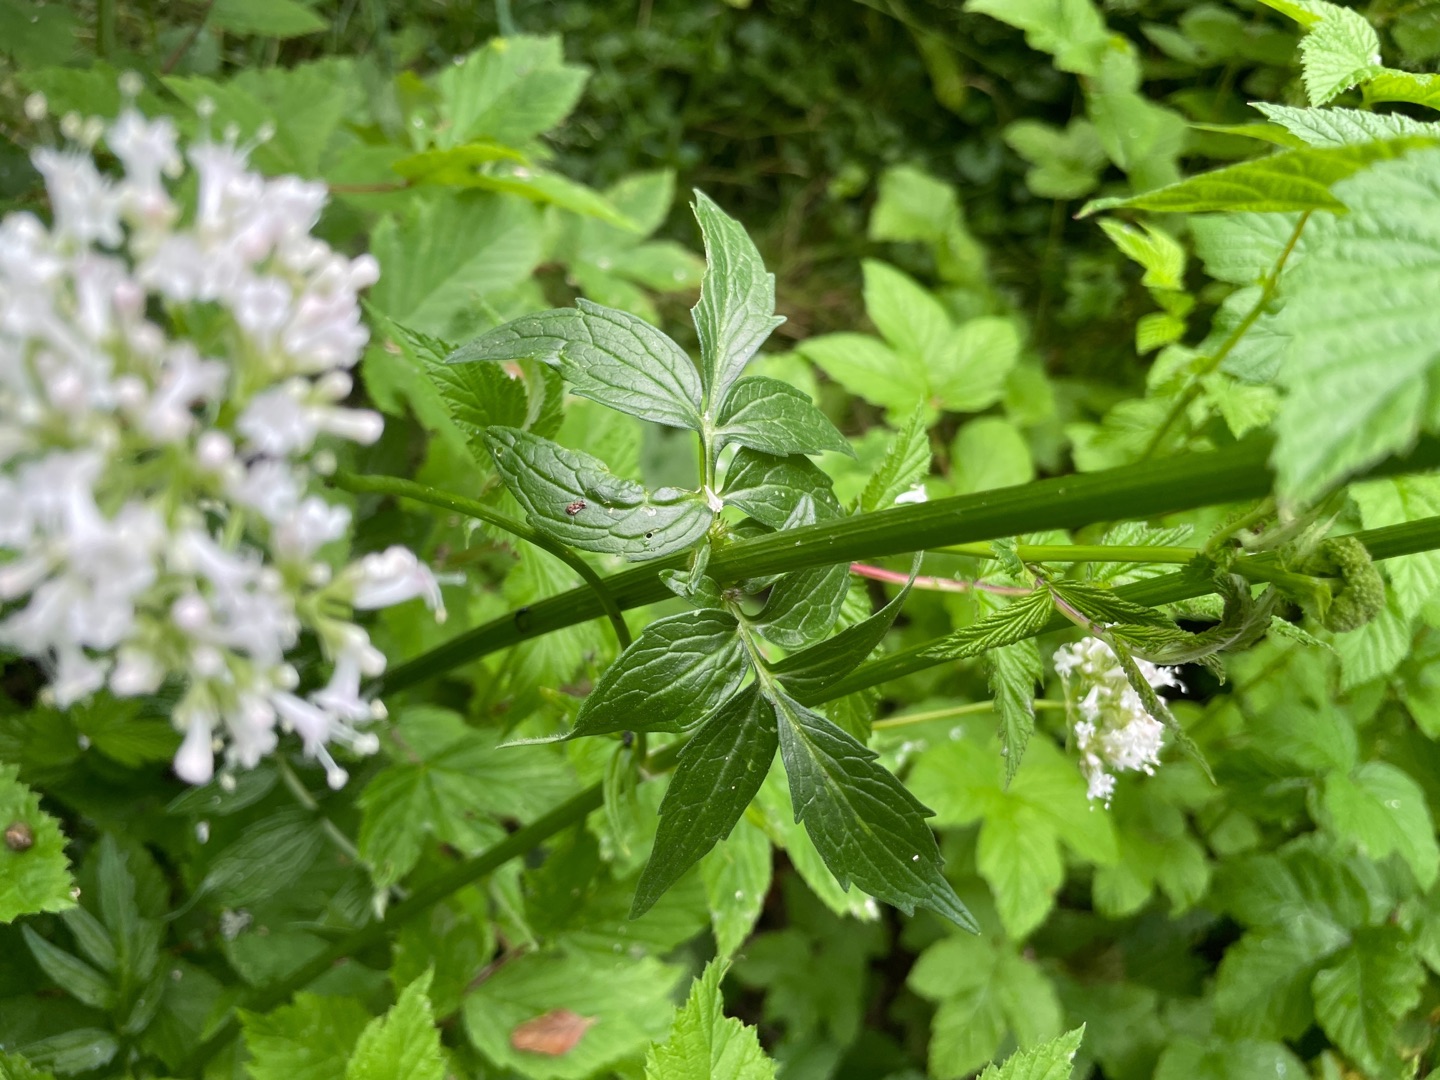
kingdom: Plantae
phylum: Tracheophyta
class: Magnoliopsida
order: Dipsacales
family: Caprifoliaceae
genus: Valeriana
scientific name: Valeriana sambucifolia
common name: Hyldebladet baldrian
